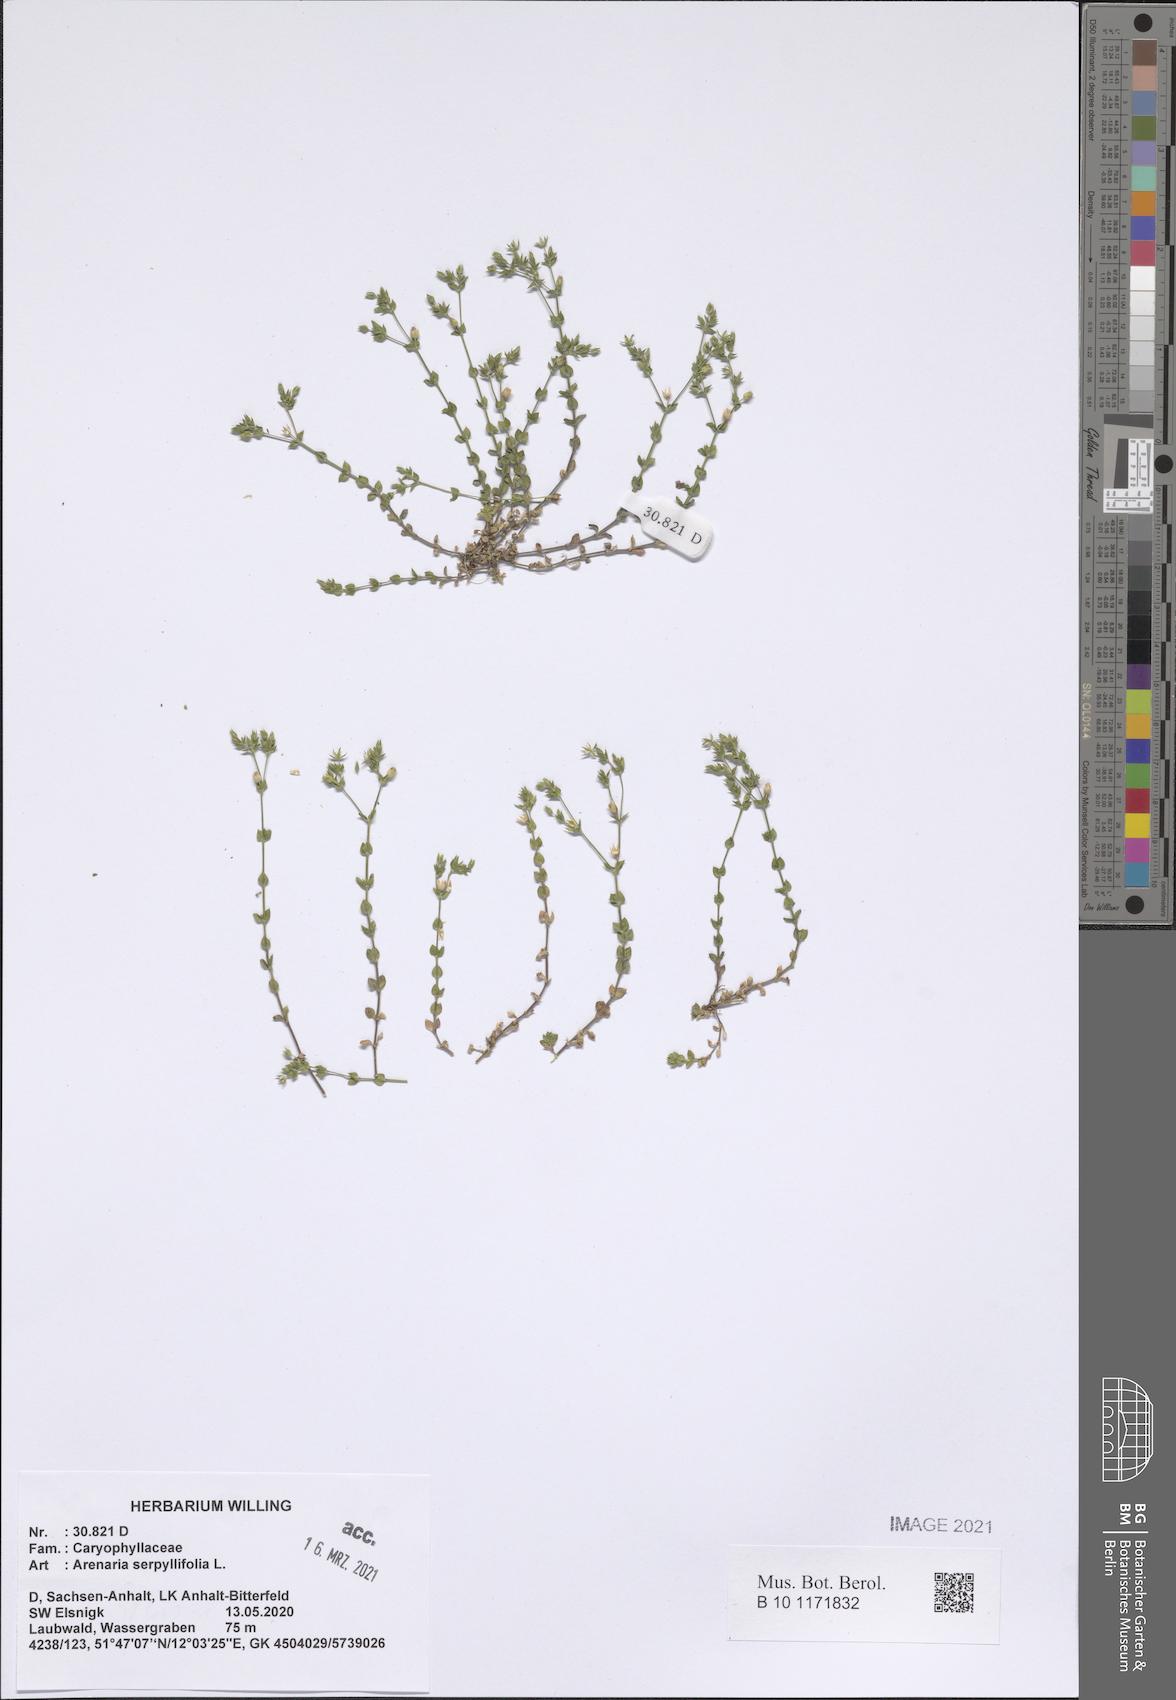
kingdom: Plantae
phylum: Tracheophyta
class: Magnoliopsida
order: Caryophyllales
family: Caryophyllaceae
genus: Arenaria
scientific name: Arenaria serpyllifolia
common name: Thyme-leaved sandwort
